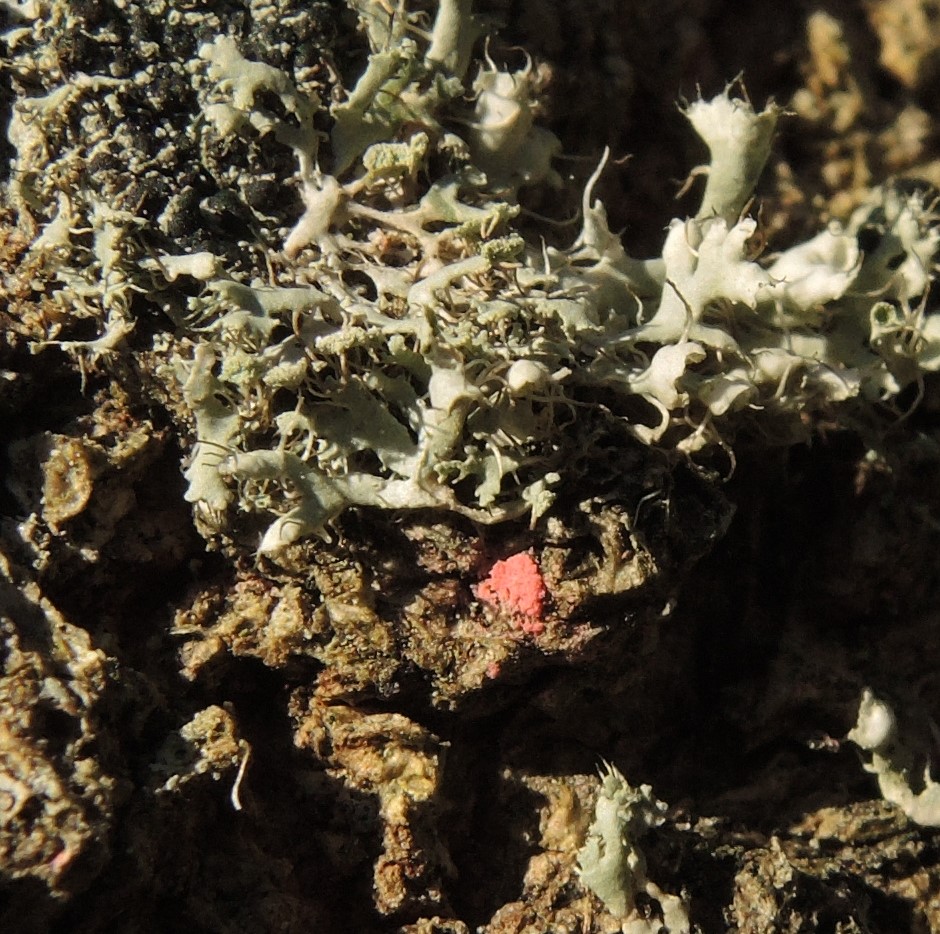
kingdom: Fungi
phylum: Ascomycota
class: Sordariomycetes
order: Hypocreales
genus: Illosporiopsis
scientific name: Illosporiopsis christiansenii
